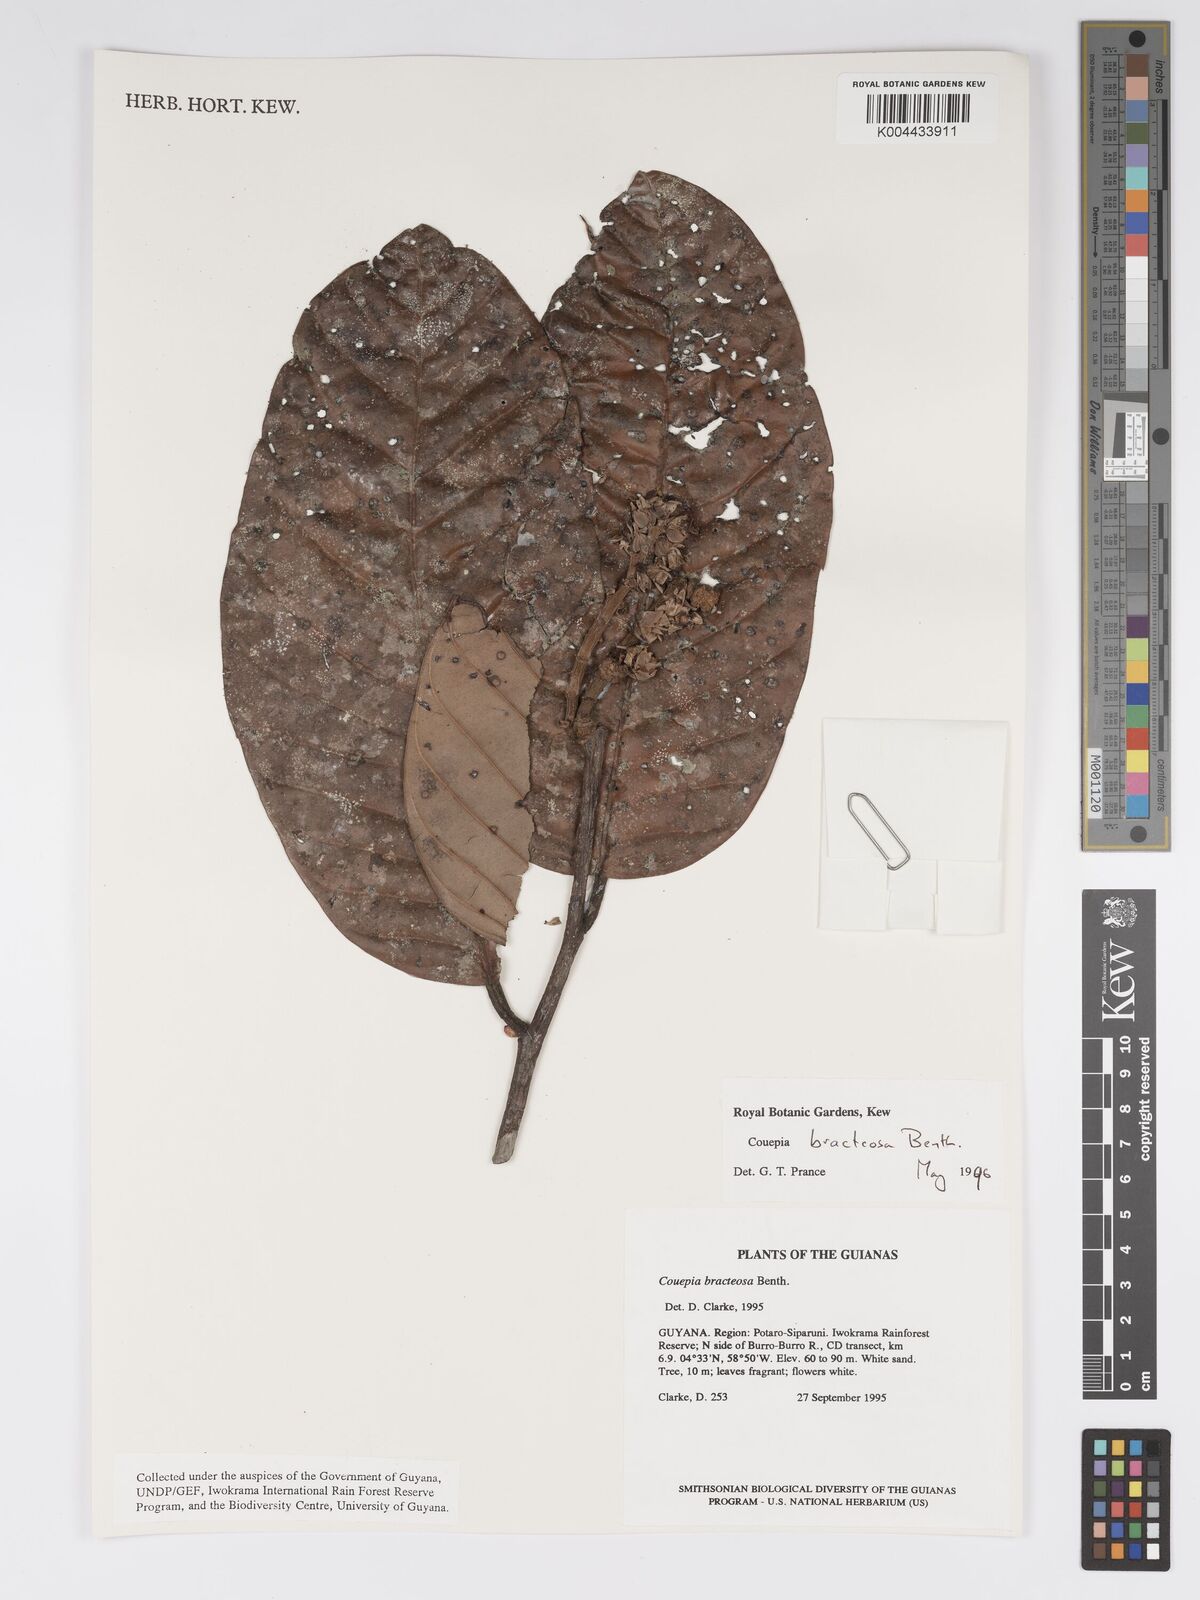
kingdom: Plantae
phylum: Tracheophyta
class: Magnoliopsida
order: Malpighiales
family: Chrysobalanaceae
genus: Couepia
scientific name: Couepia bracteosa
